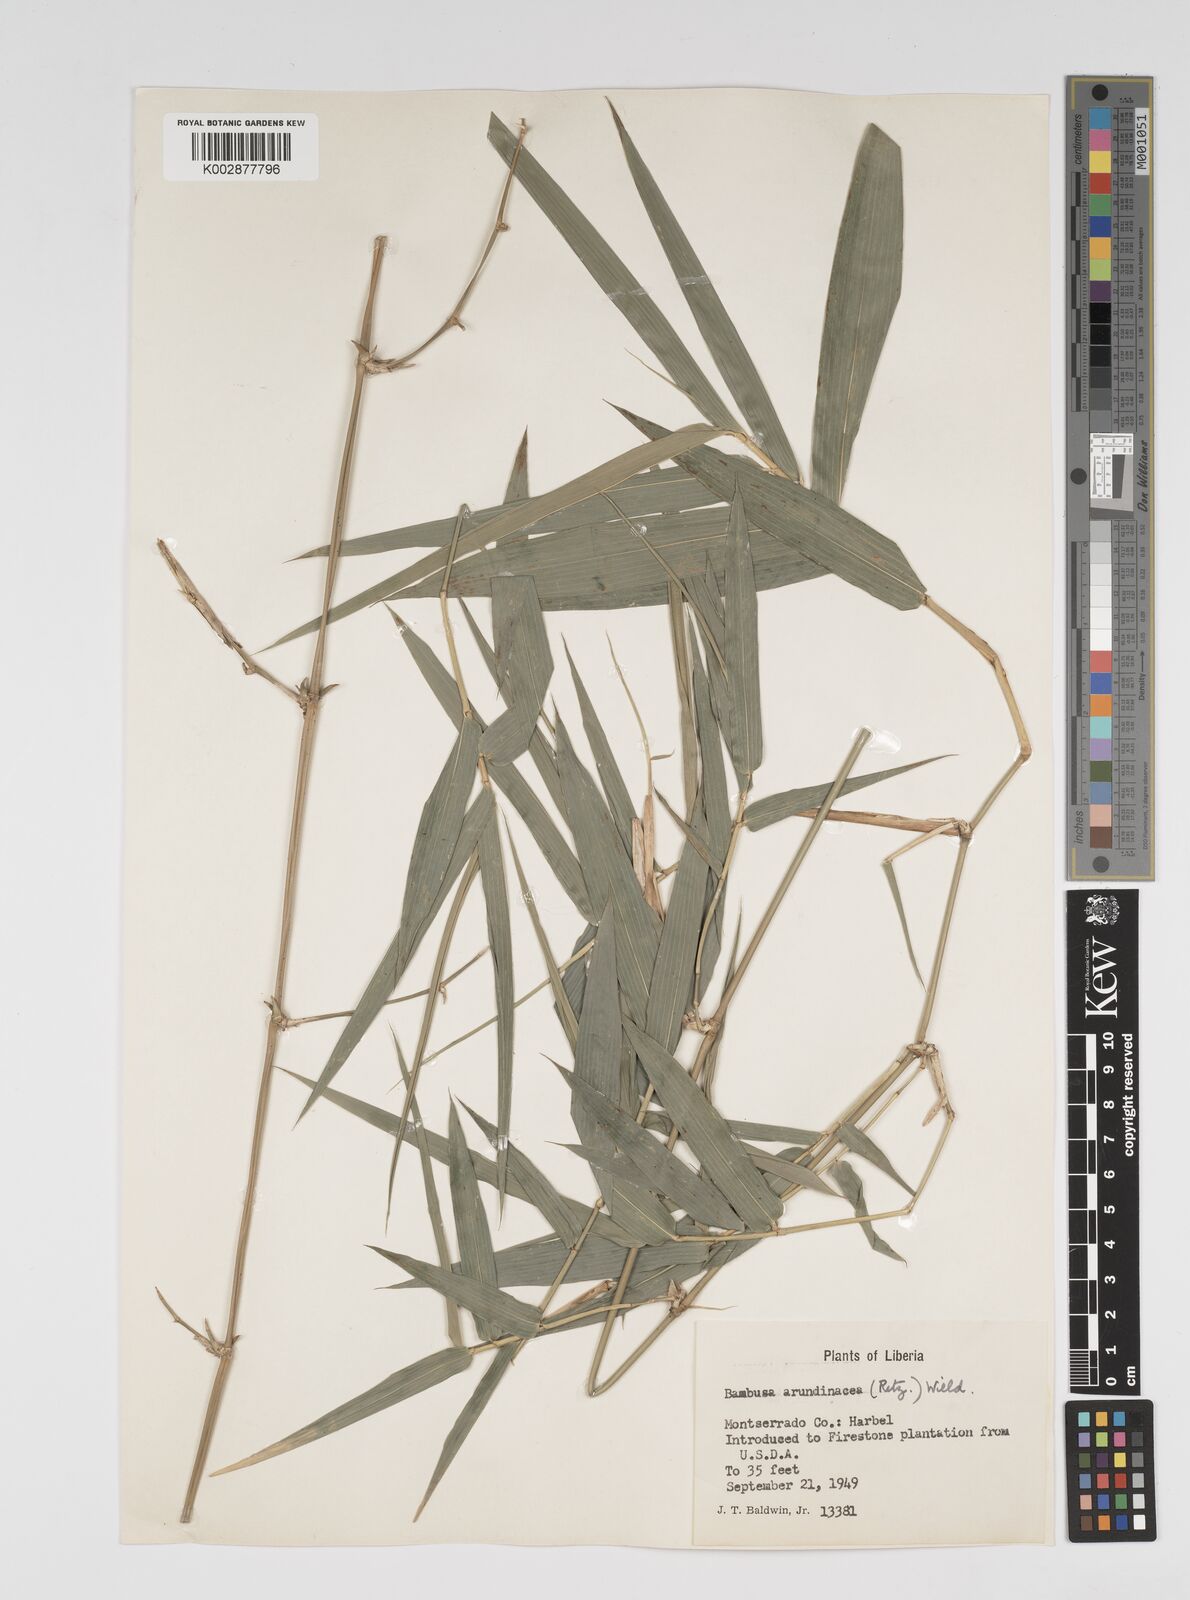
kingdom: Plantae
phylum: Tracheophyta
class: Liliopsida
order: Poales
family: Poaceae
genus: Bambusa
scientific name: Bambusa bambos
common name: Indian thorny bamboo
